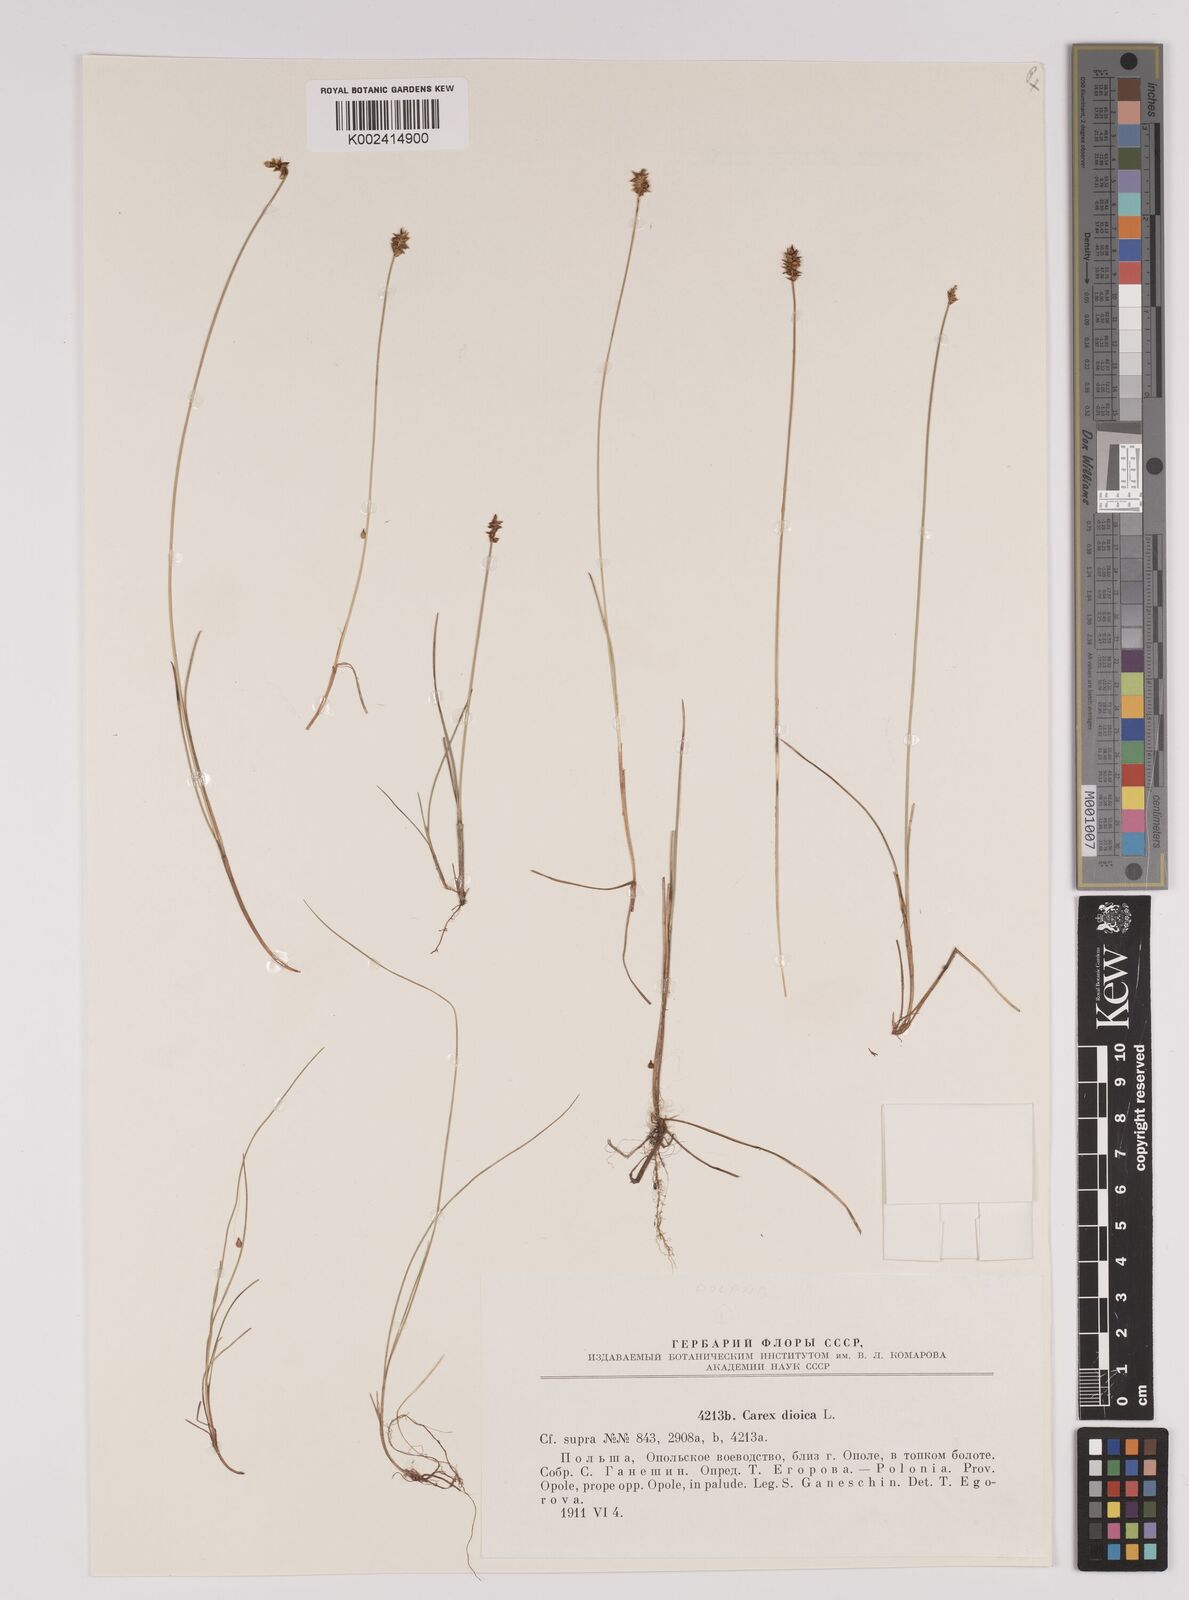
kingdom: Plantae
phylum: Tracheophyta
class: Liliopsida
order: Poales
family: Cyperaceae
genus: Carex
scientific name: Carex dioica
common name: Dioecious sedge
